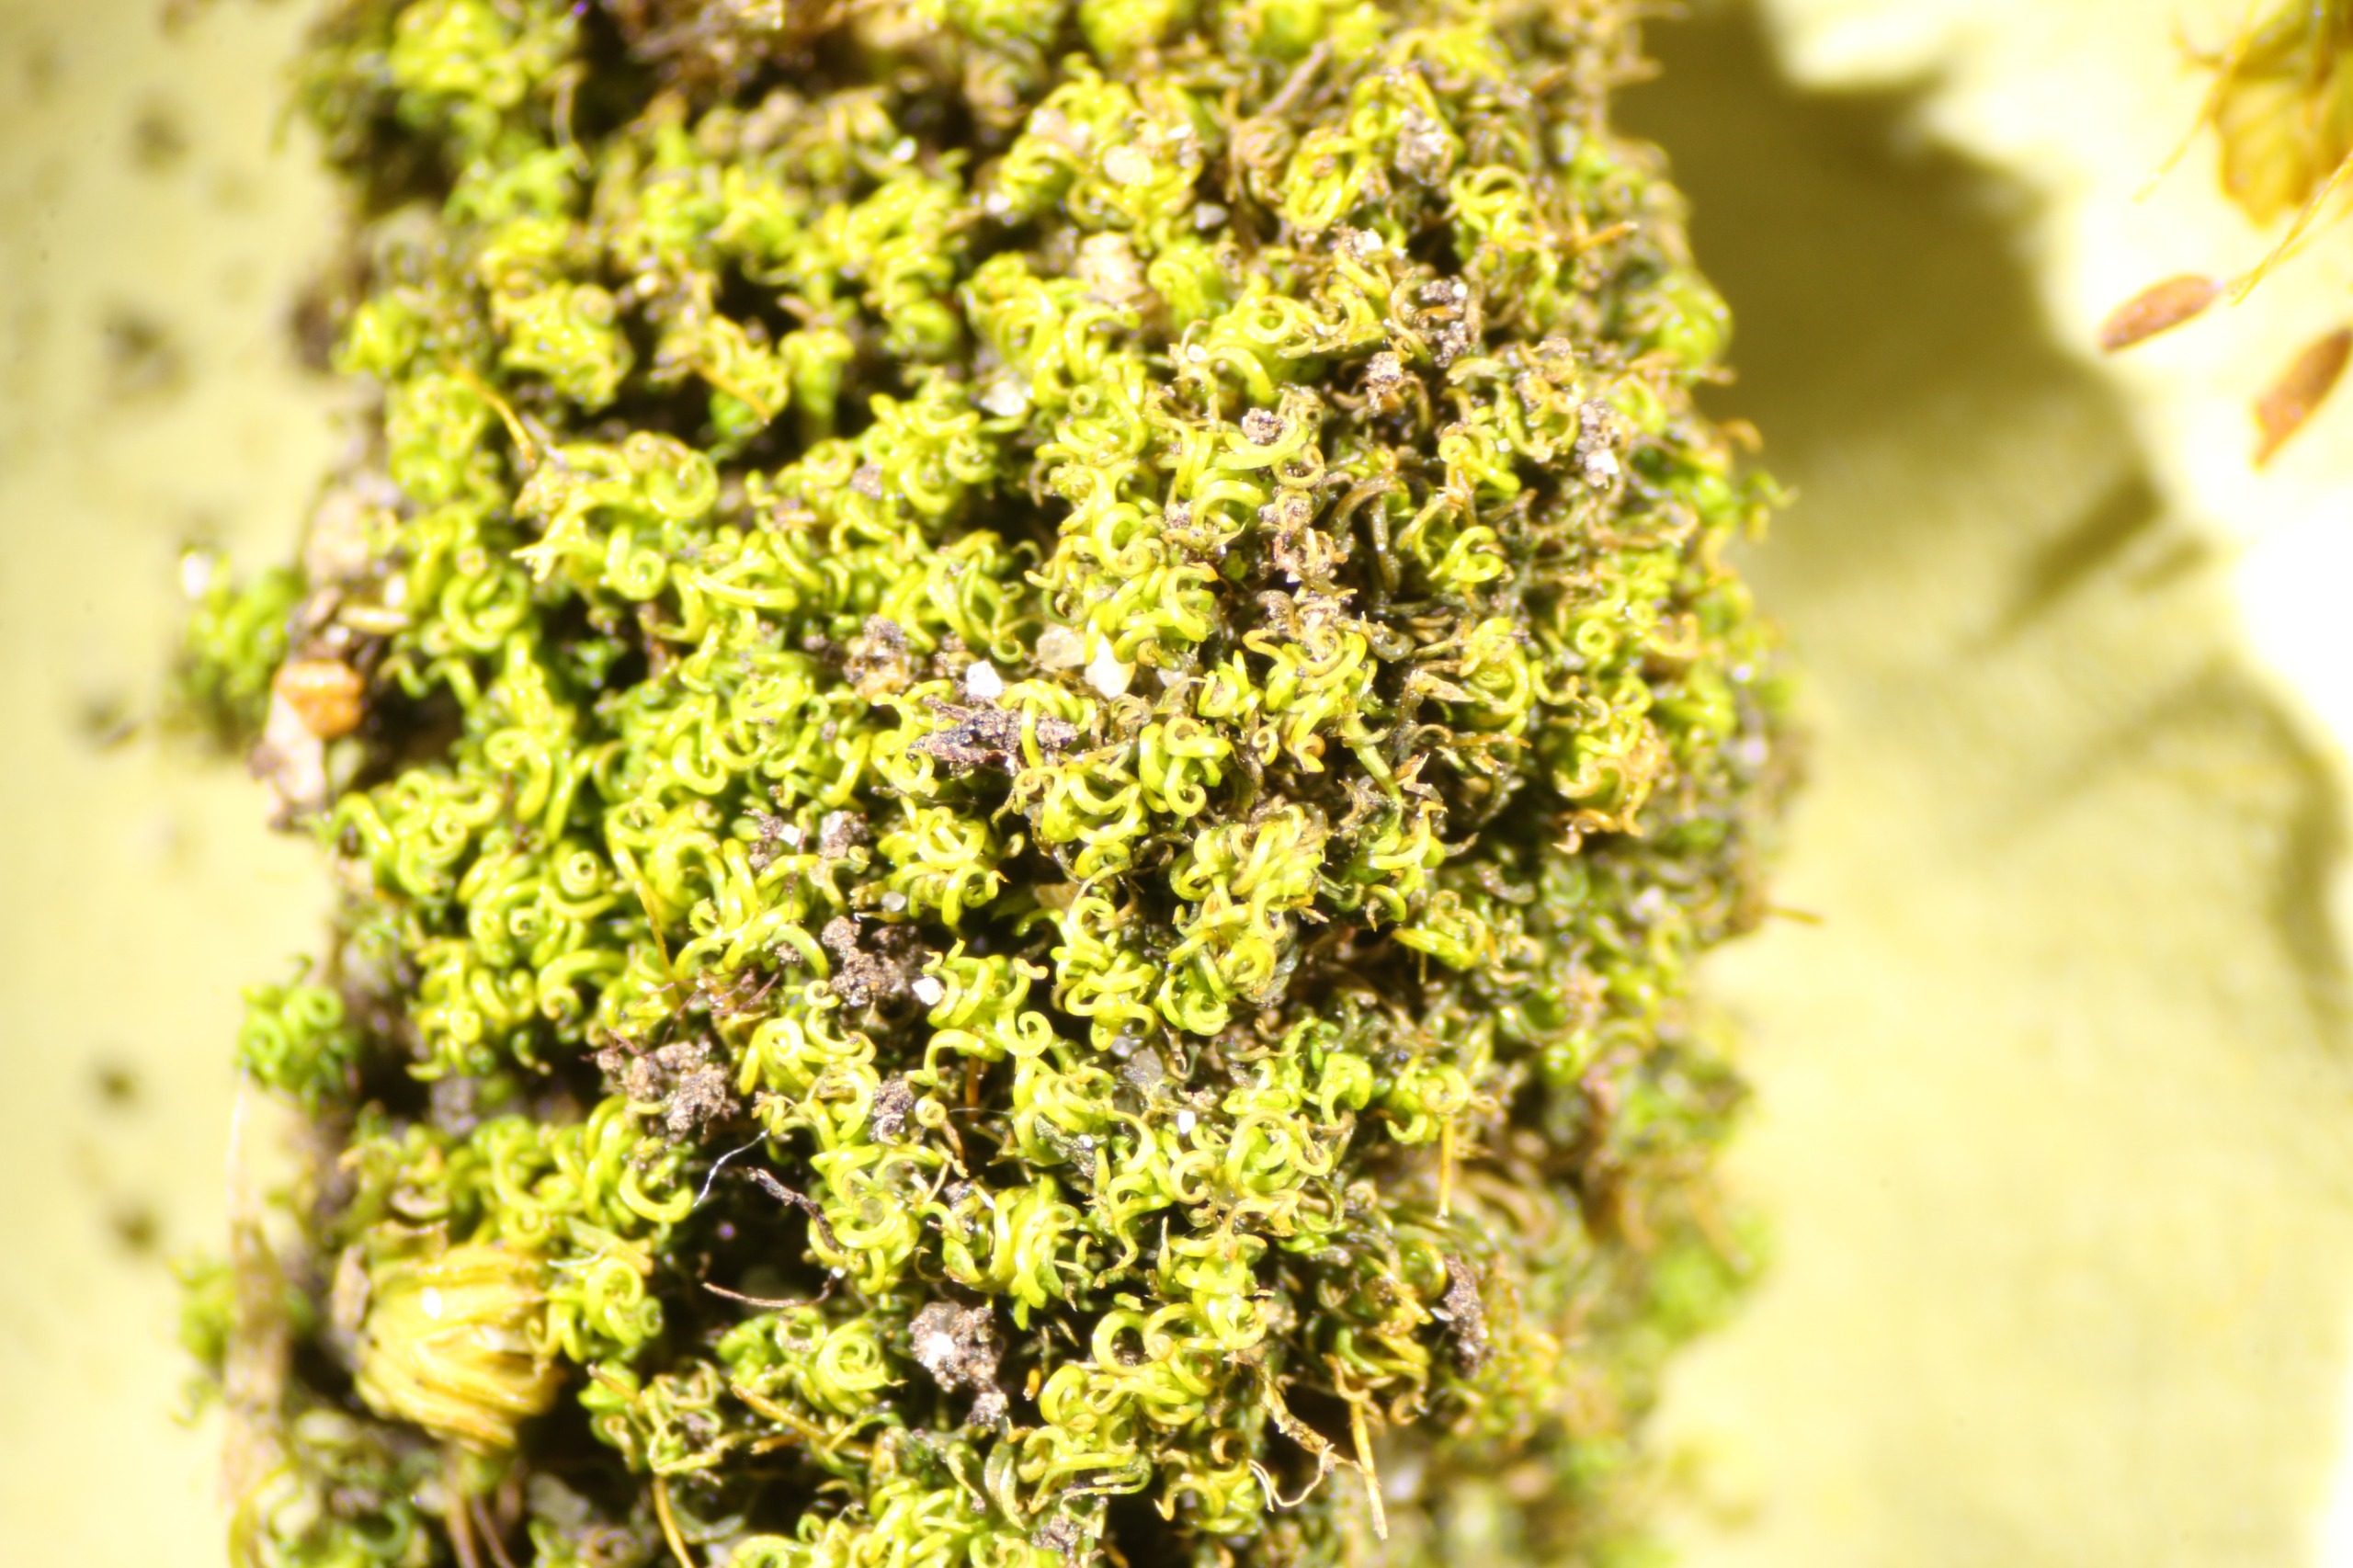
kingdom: Plantae
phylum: Bryophyta
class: Bryopsida
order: Pottiales
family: Pottiaceae
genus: Weissia
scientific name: Weissia controversa
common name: Smaltandet krusmos
